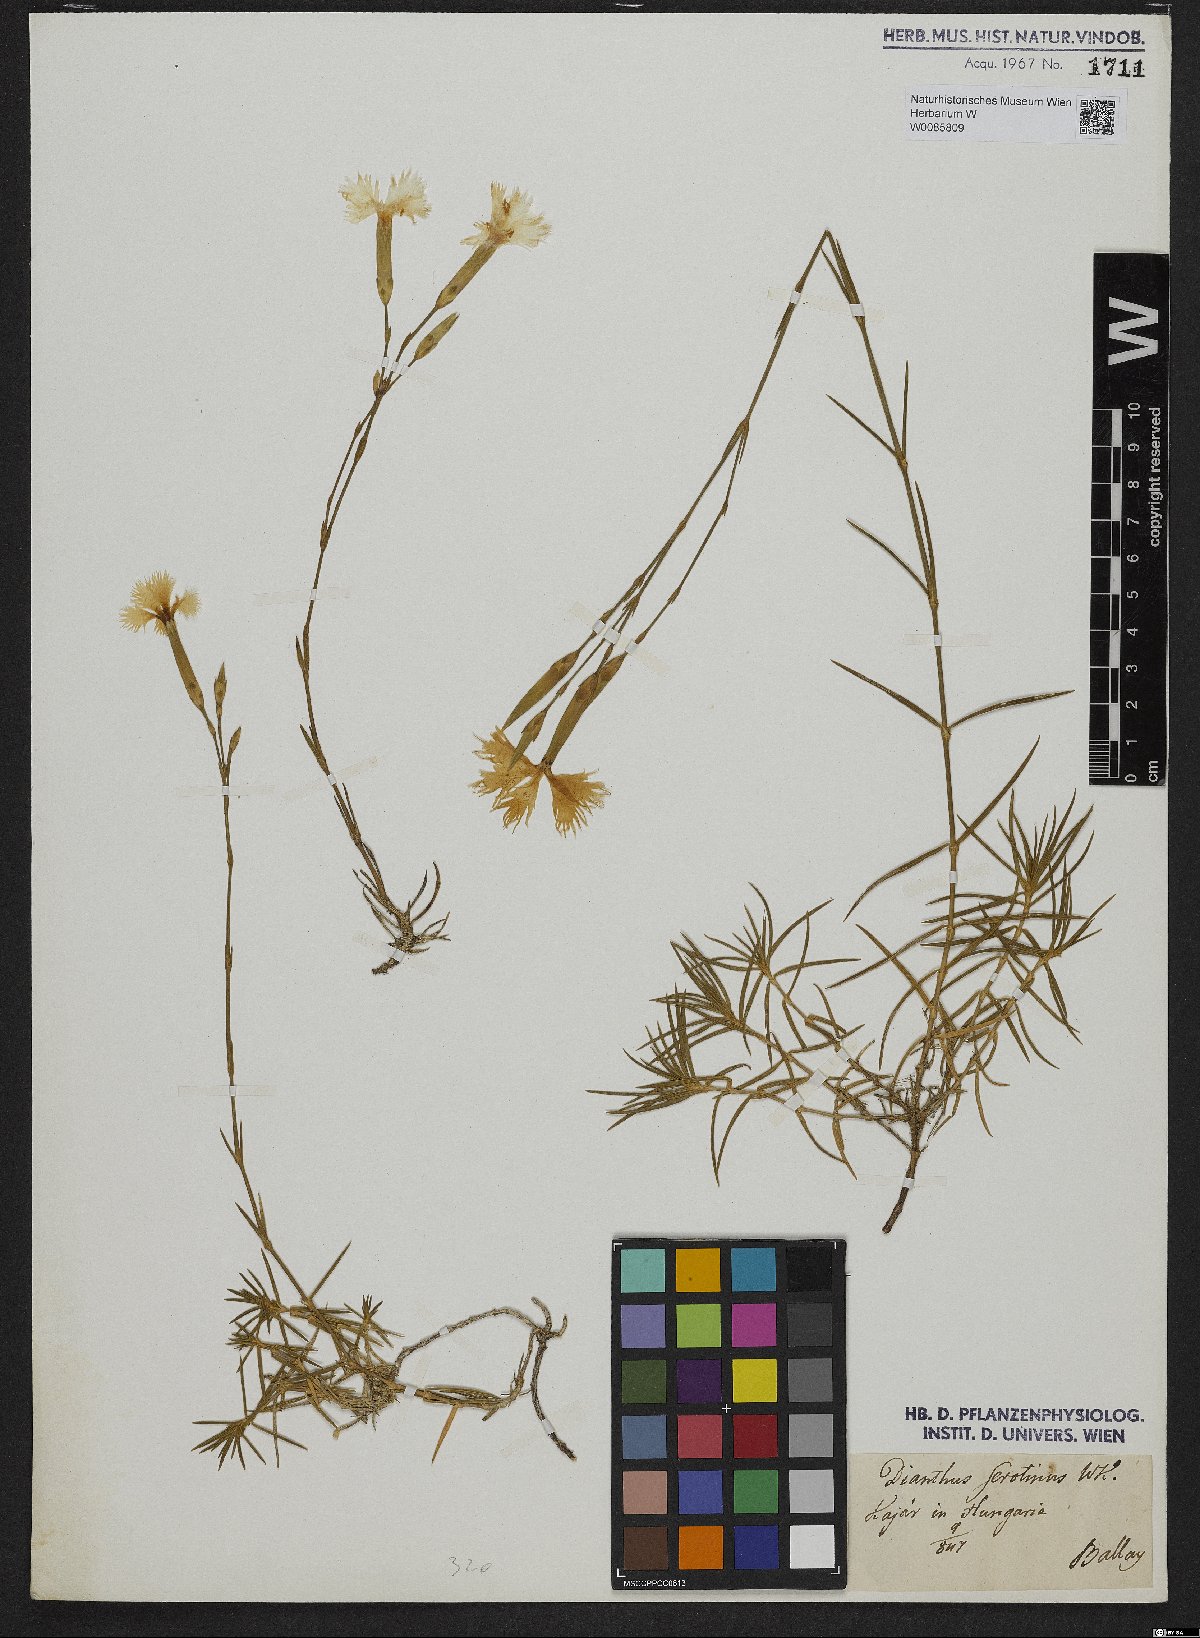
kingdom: Plantae
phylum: Tracheophyta
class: Magnoliopsida
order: Caryophyllales
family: Caryophyllaceae
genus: Dianthus
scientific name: Dianthus serotinus
